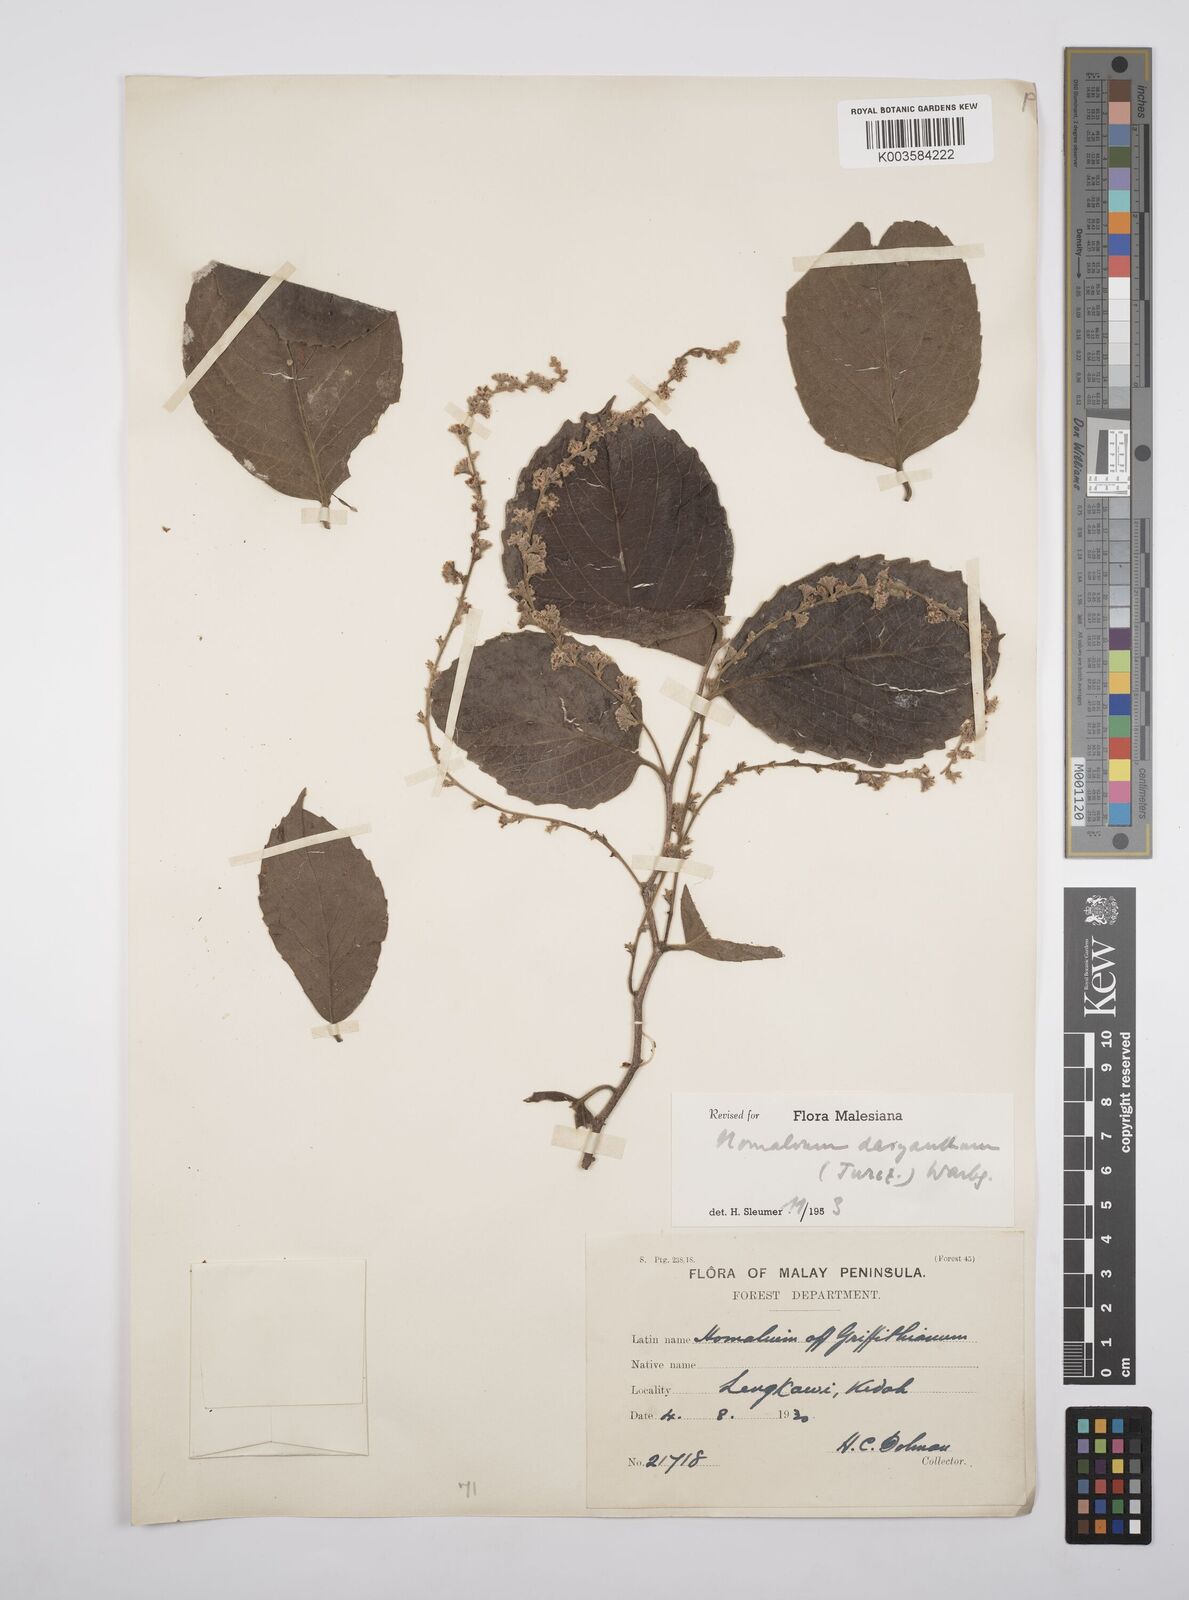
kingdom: Plantae
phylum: Tracheophyta
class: Magnoliopsida
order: Malpighiales
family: Salicaceae
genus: Homalium
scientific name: Homalium dasyanthum
